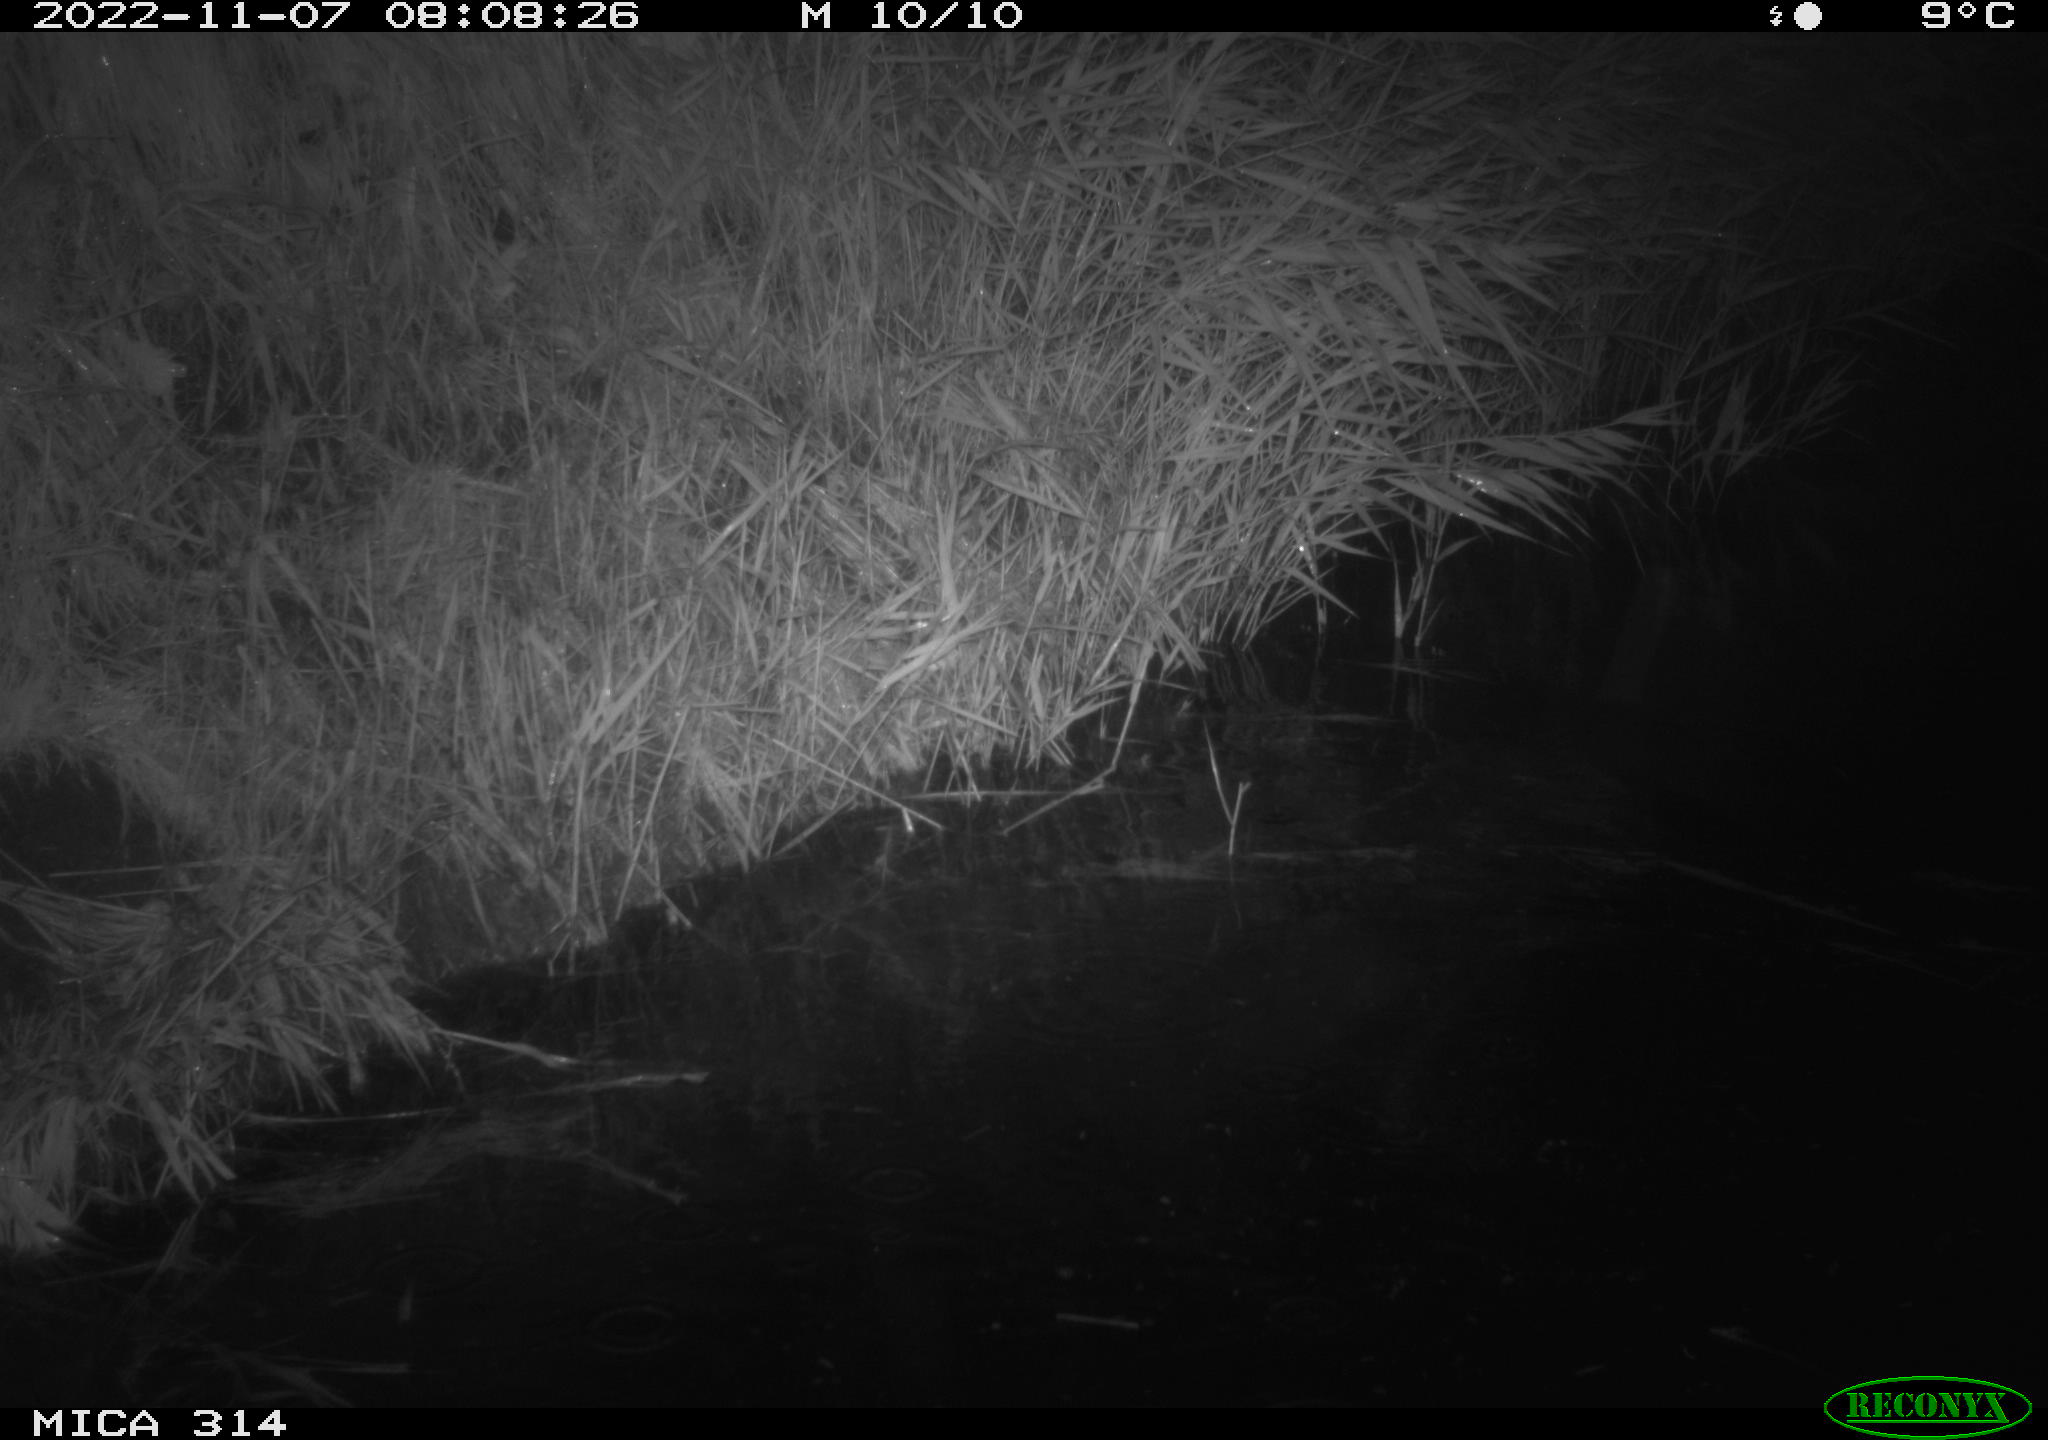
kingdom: Animalia
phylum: Chordata
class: Mammalia
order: Rodentia
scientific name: Rodentia
